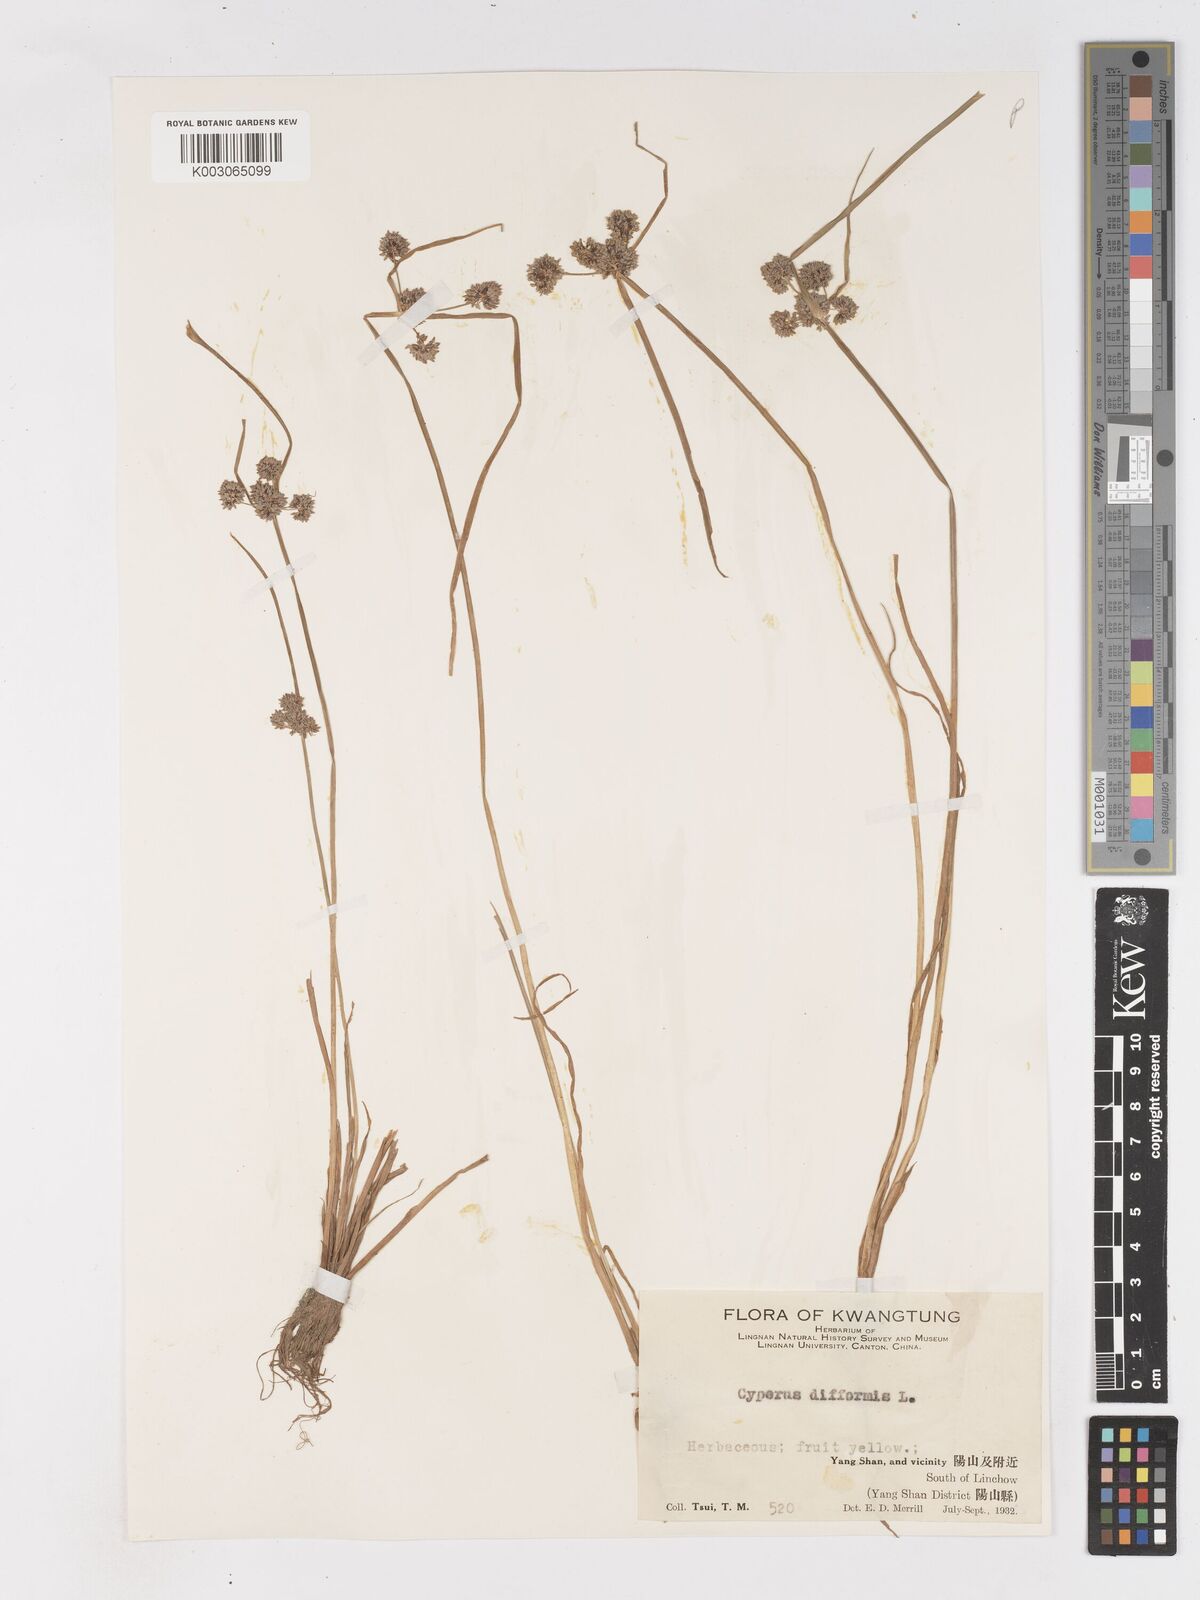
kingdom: Plantae
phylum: Tracheophyta
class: Liliopsida
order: Poales
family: Cyperaceae
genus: Cyperus
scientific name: Cyperus difformis
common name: Variable flatsedge
